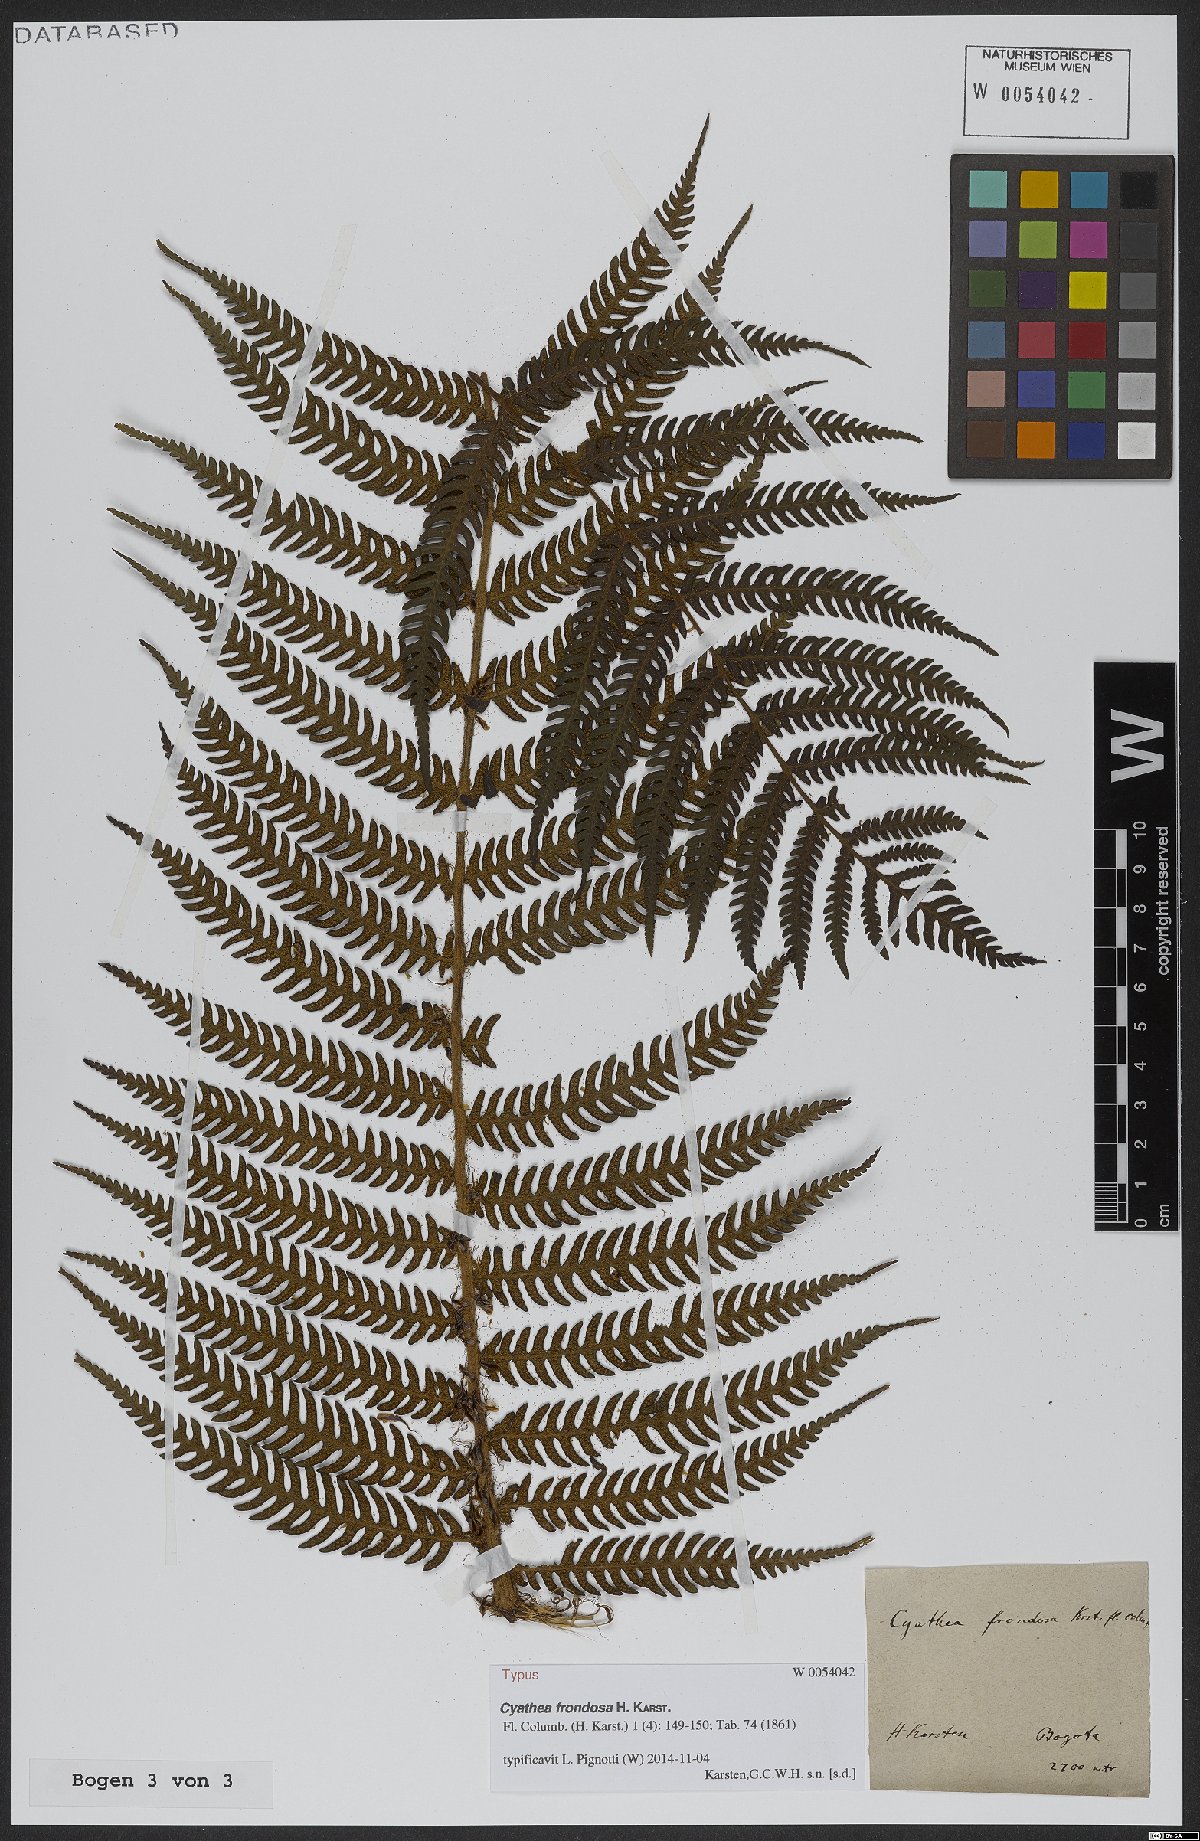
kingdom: Plantae
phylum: Tracheophyta
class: Polypodiopsida
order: Cyatheales
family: Cyatheaceae
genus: Cyathea
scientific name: Cyathea frondosa
